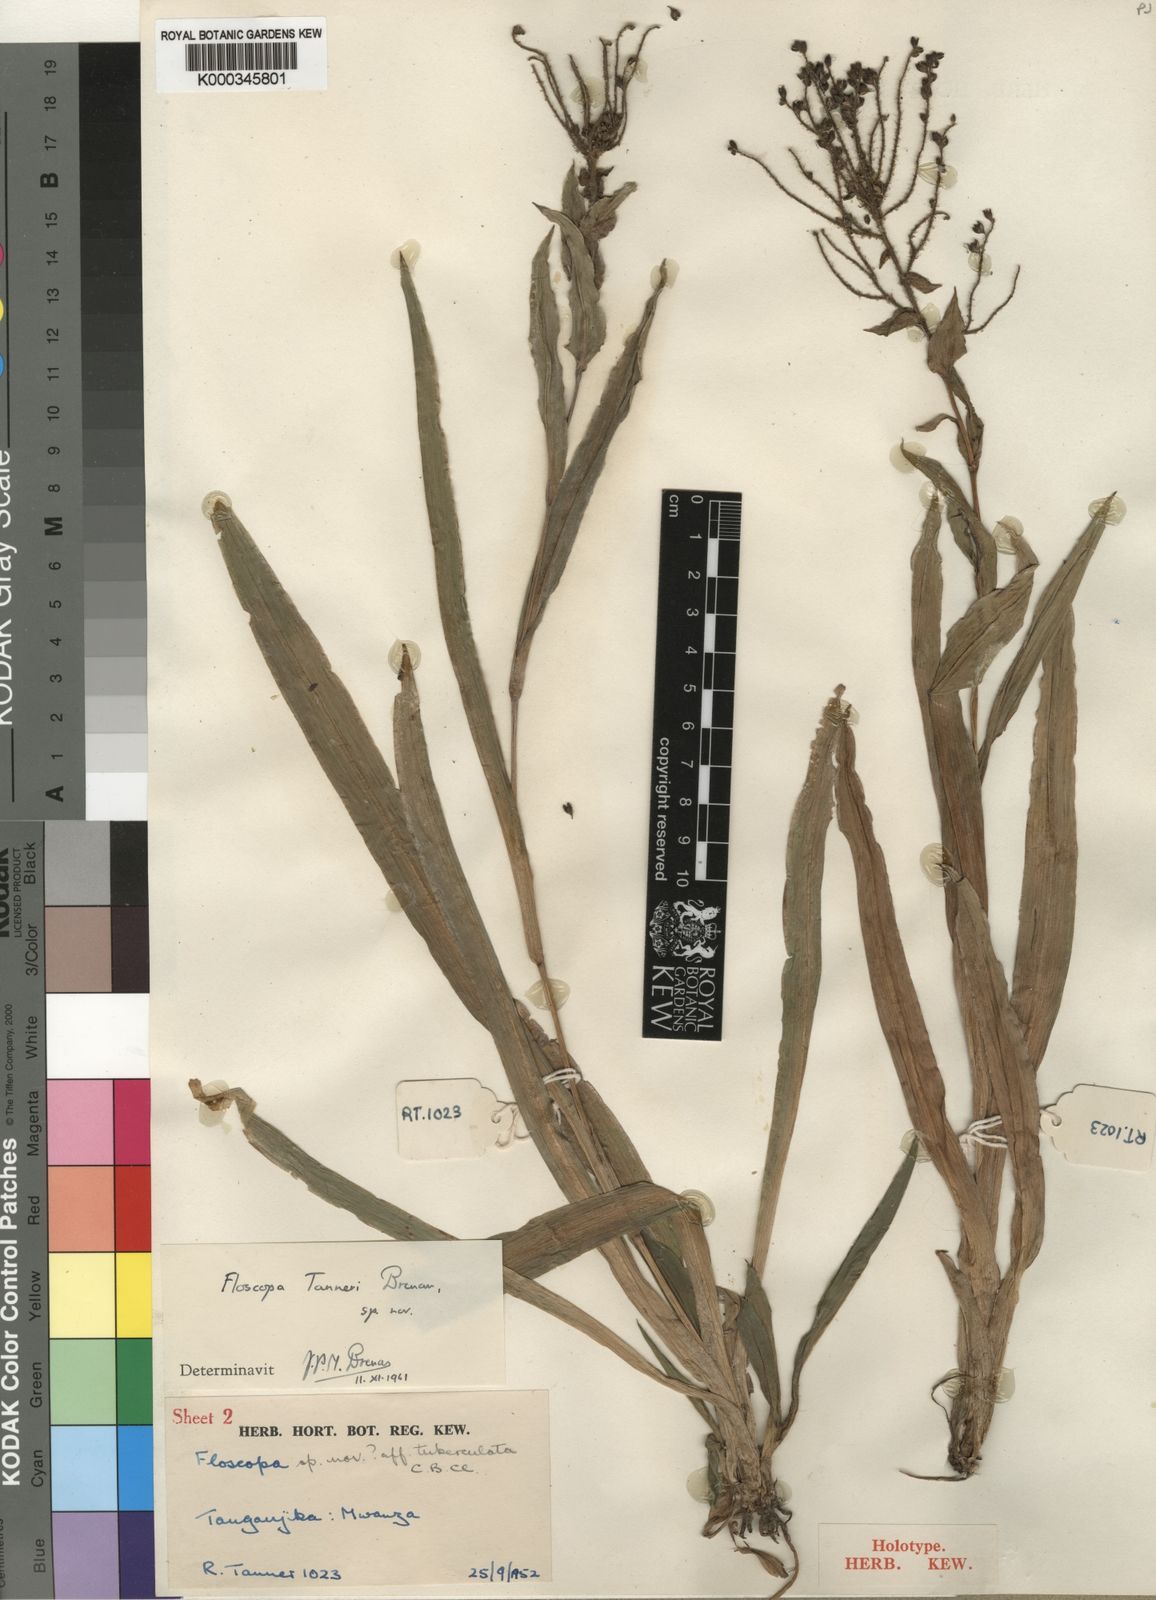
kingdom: Plantae
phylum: Tracheophyta
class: Liliopsida
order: Commelinales
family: Commelinaceae
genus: Floscopa
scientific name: Floscopa tanneri
